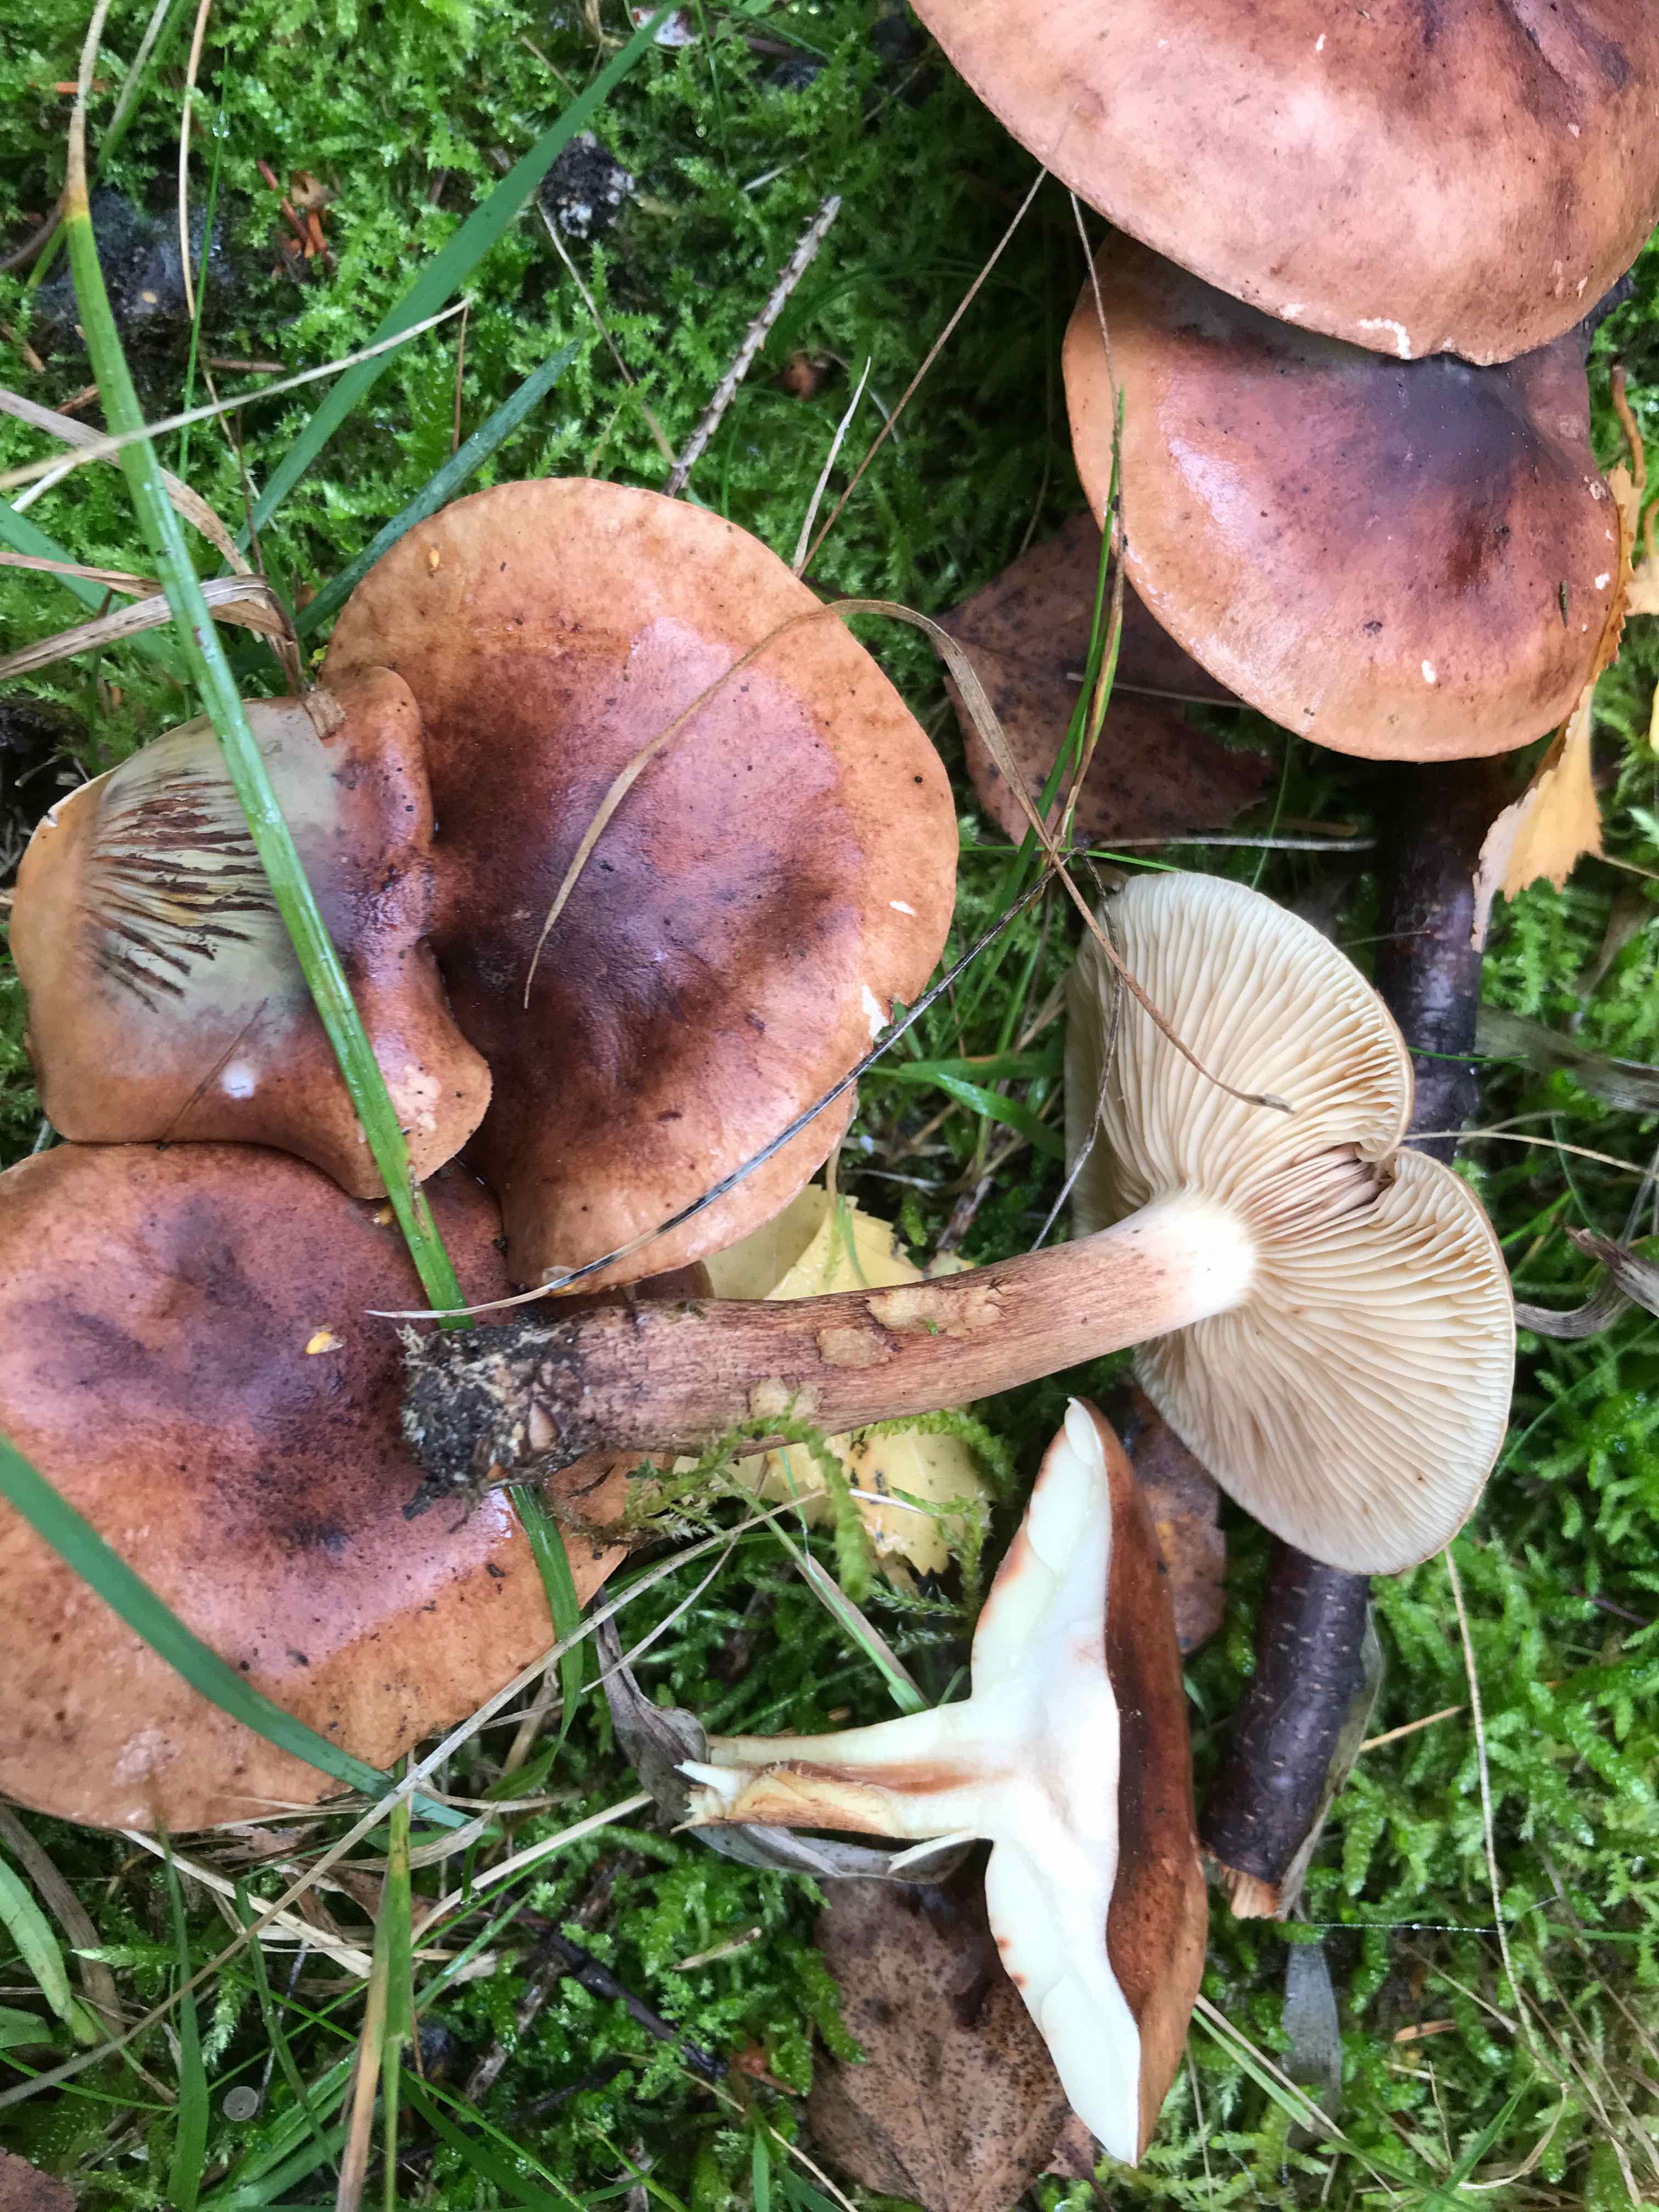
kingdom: Fungi
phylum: Basidiomycota
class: Agaricomycetes
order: Agaricales
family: Tricholomataceae
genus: Tricholoma
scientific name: Tricholoma fulvum
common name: birke-ridderhat
